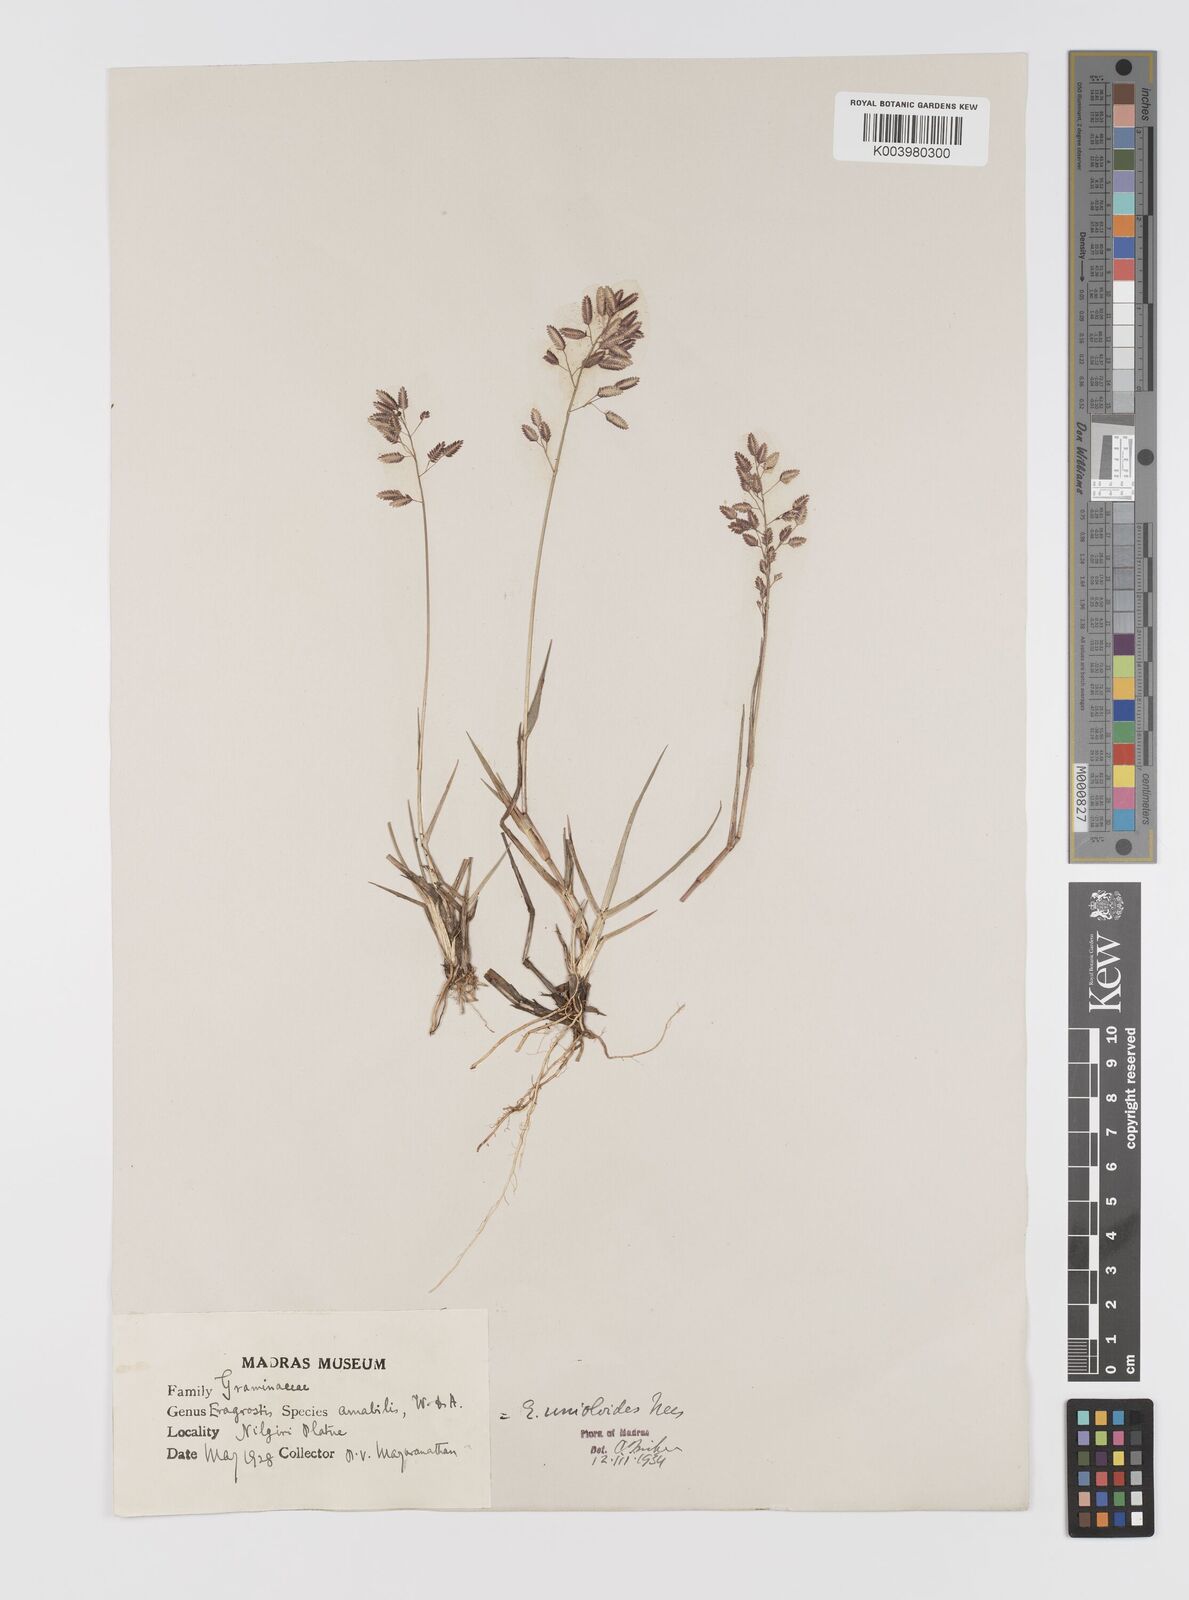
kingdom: Plantae
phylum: Tracheophyta
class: Liliopsida
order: Poales
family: Poaceae
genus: Eragrostis
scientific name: Eragrostis unioloides
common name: Chinese lovegrass
